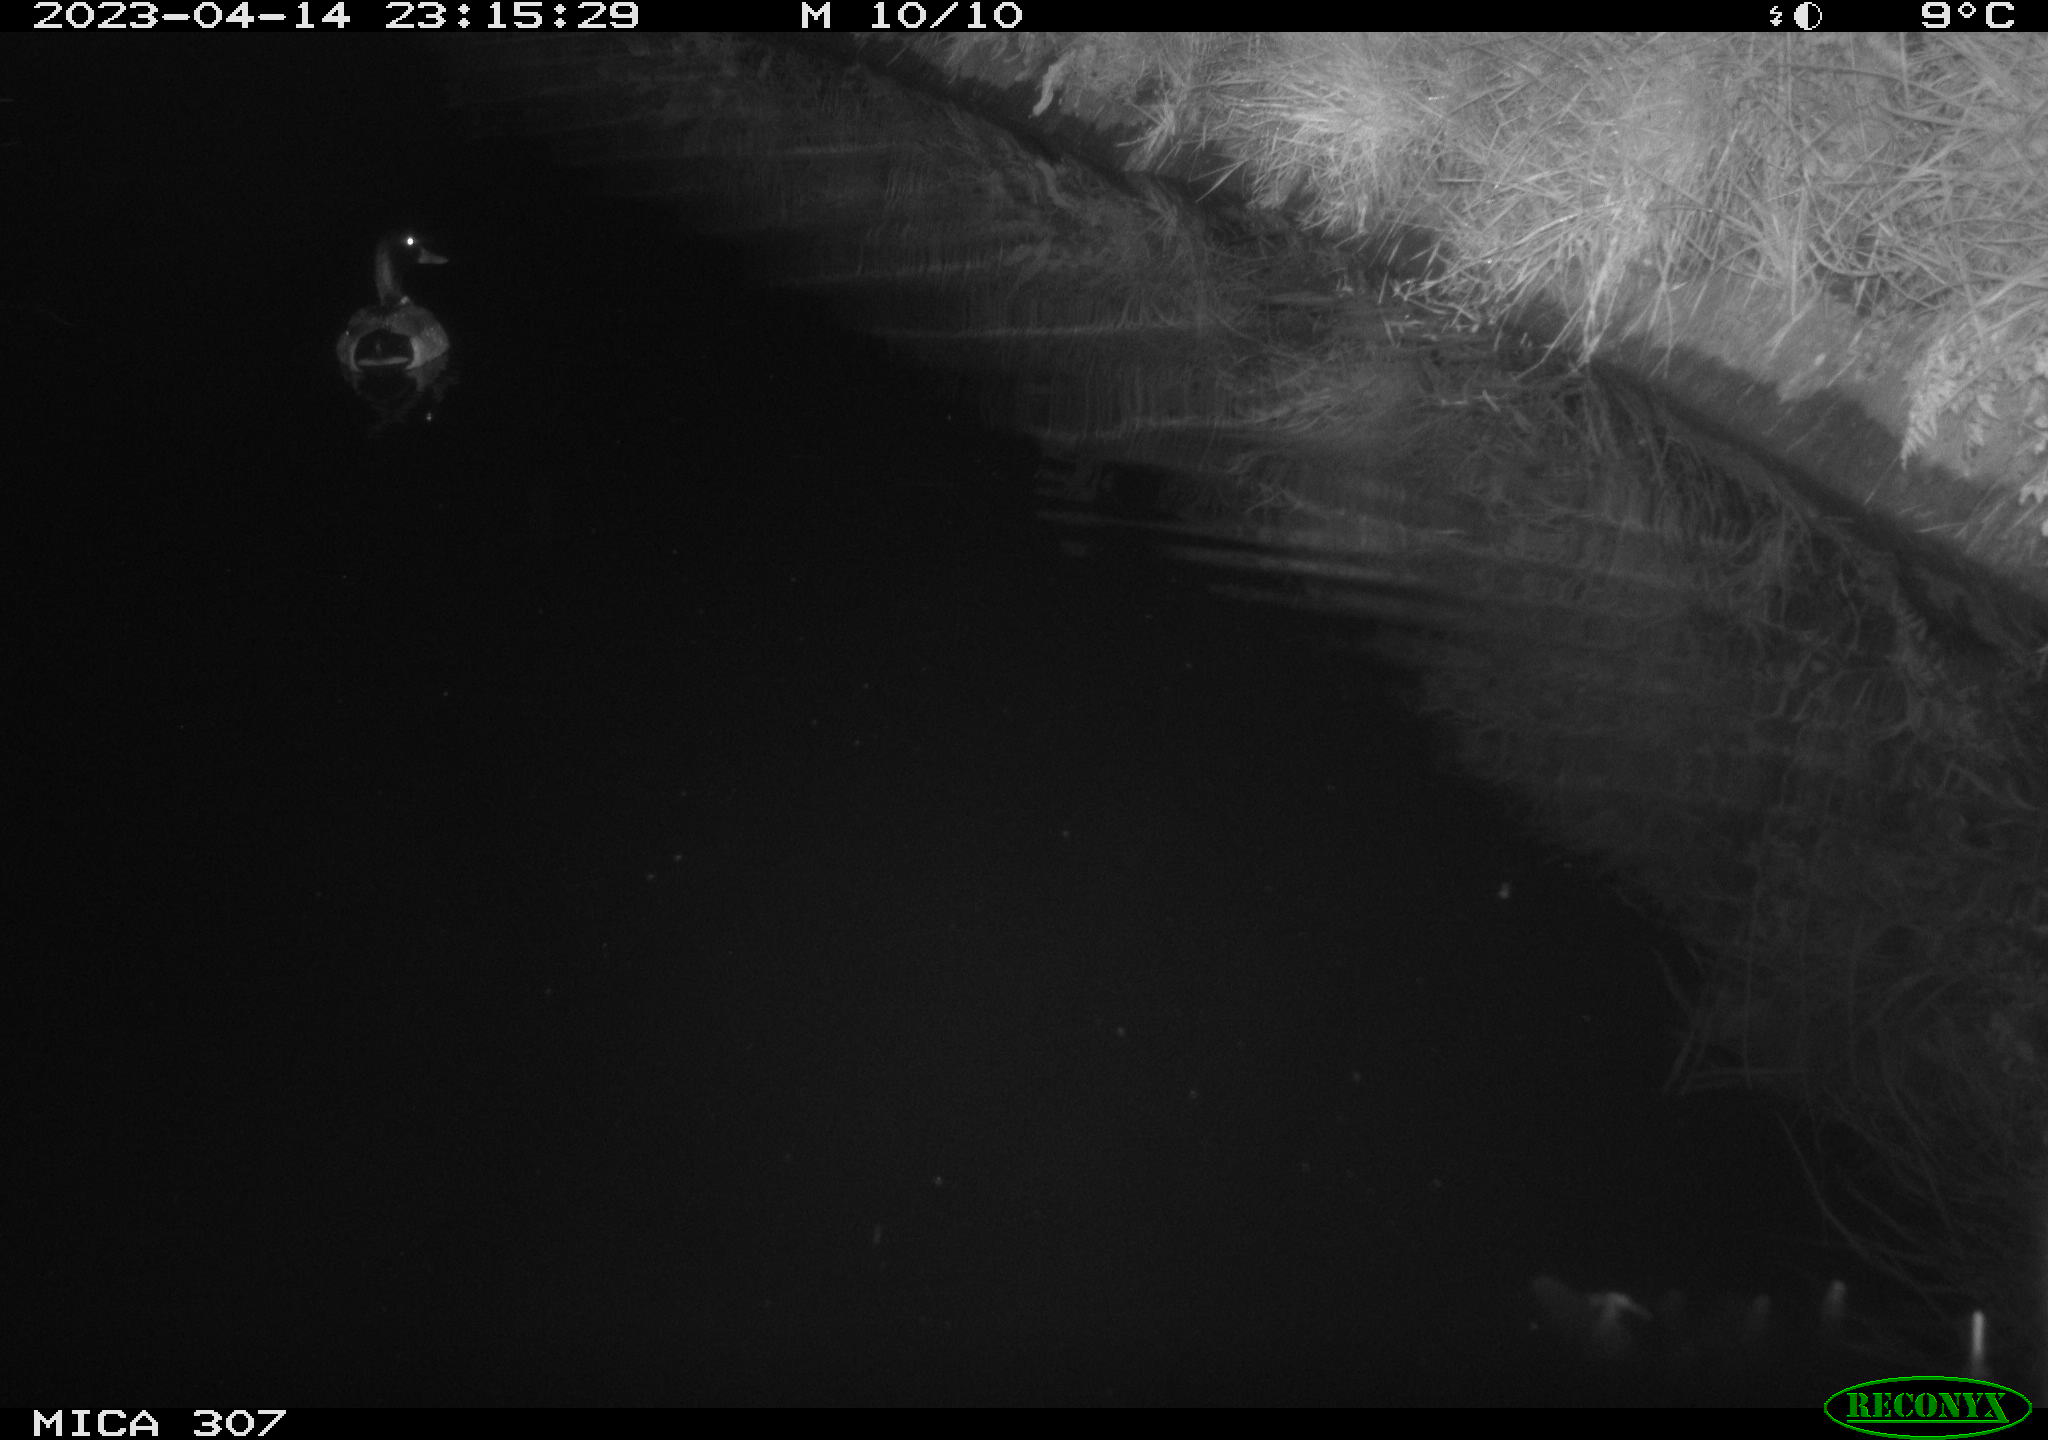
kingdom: Animalia
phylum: Chordata
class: Aves
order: Anseriformes
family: Anatidae
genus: Anas
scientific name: Anas
